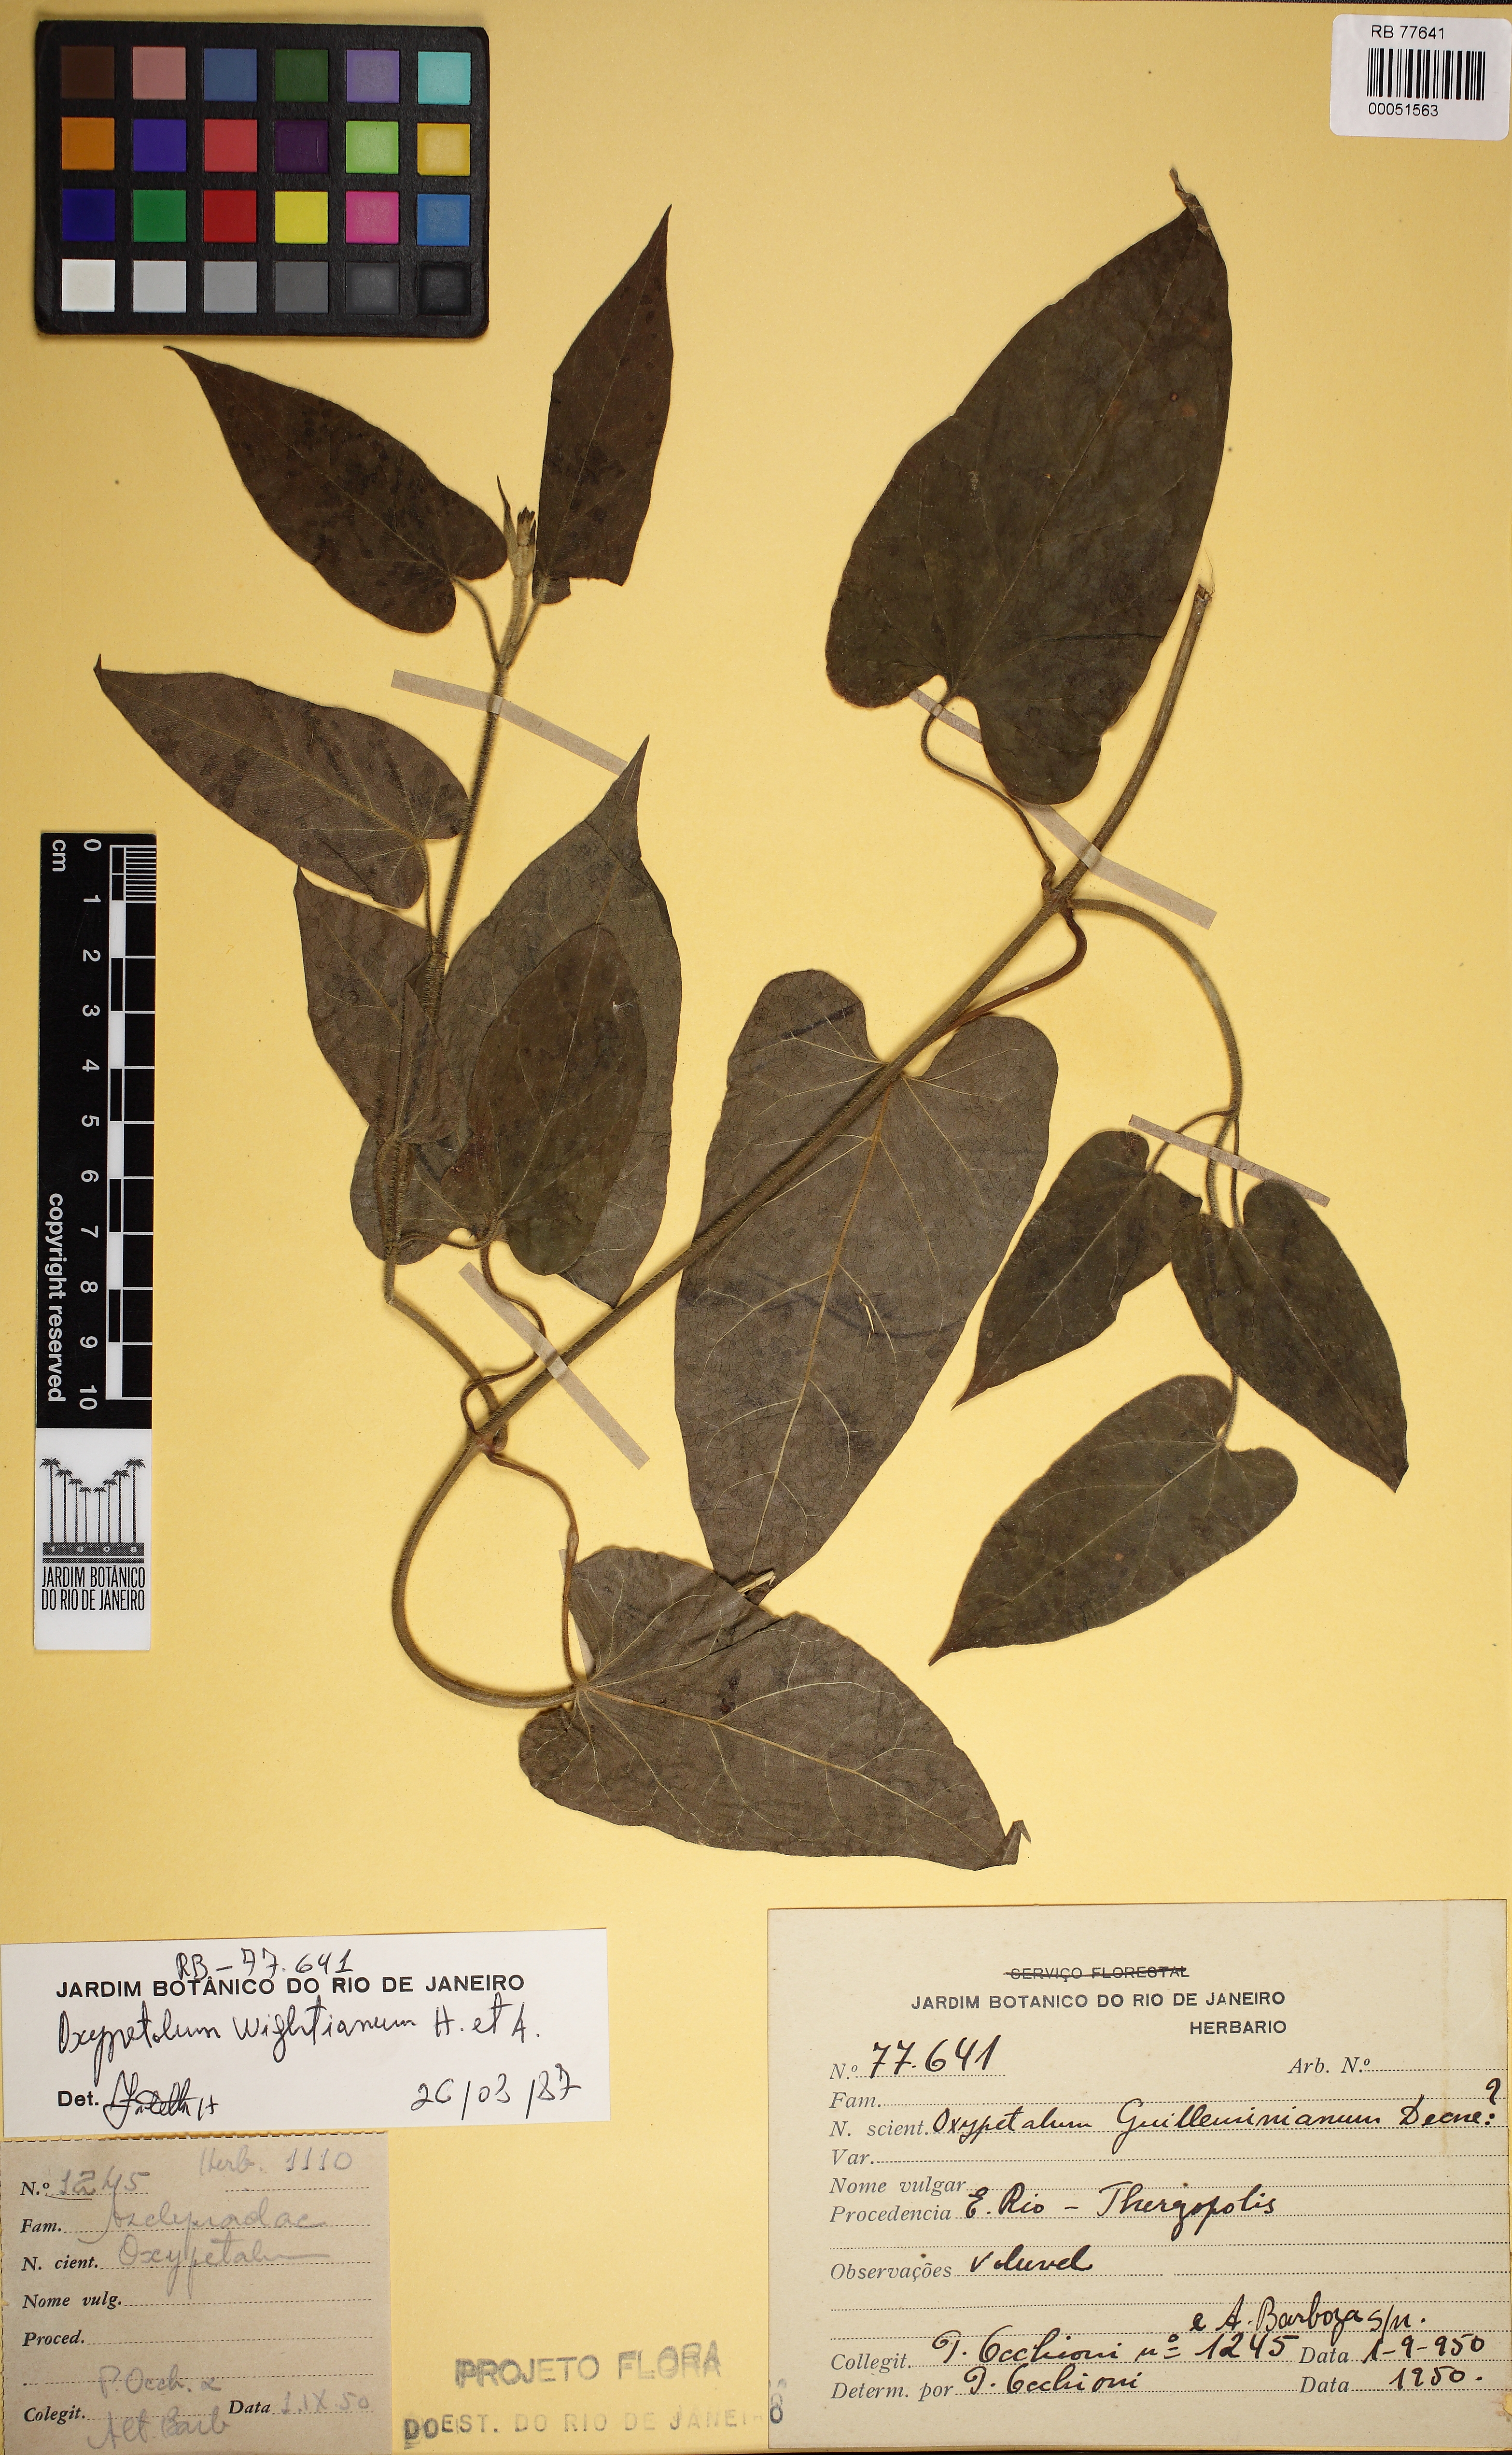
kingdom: Plantae
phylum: Tracheophyta
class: Magnoliopsida
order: Gentianales
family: Apocynaceae
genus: Oxypetalum
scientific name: Oxypetalum wightianum
